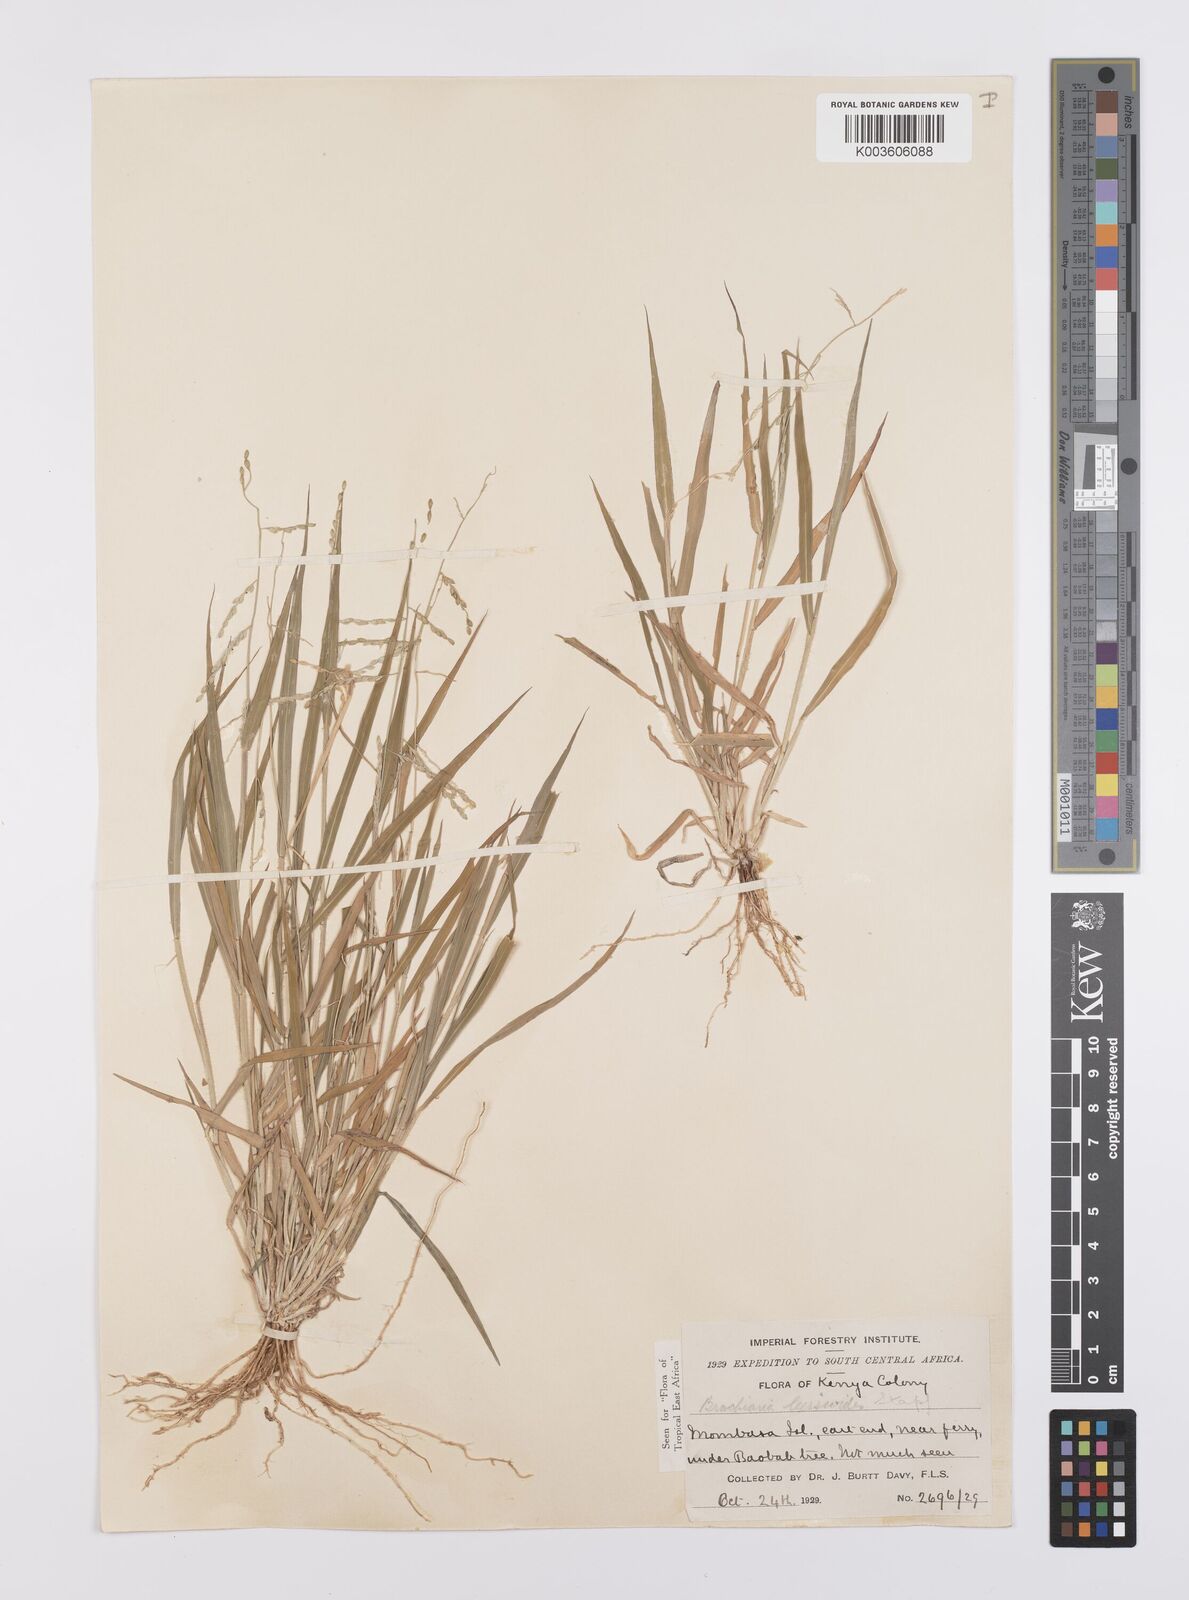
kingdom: Plantae
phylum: Tracheophyta
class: Liliopsida
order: Poales
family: Poaceae
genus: Urochloa
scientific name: Urochloa leersioides
